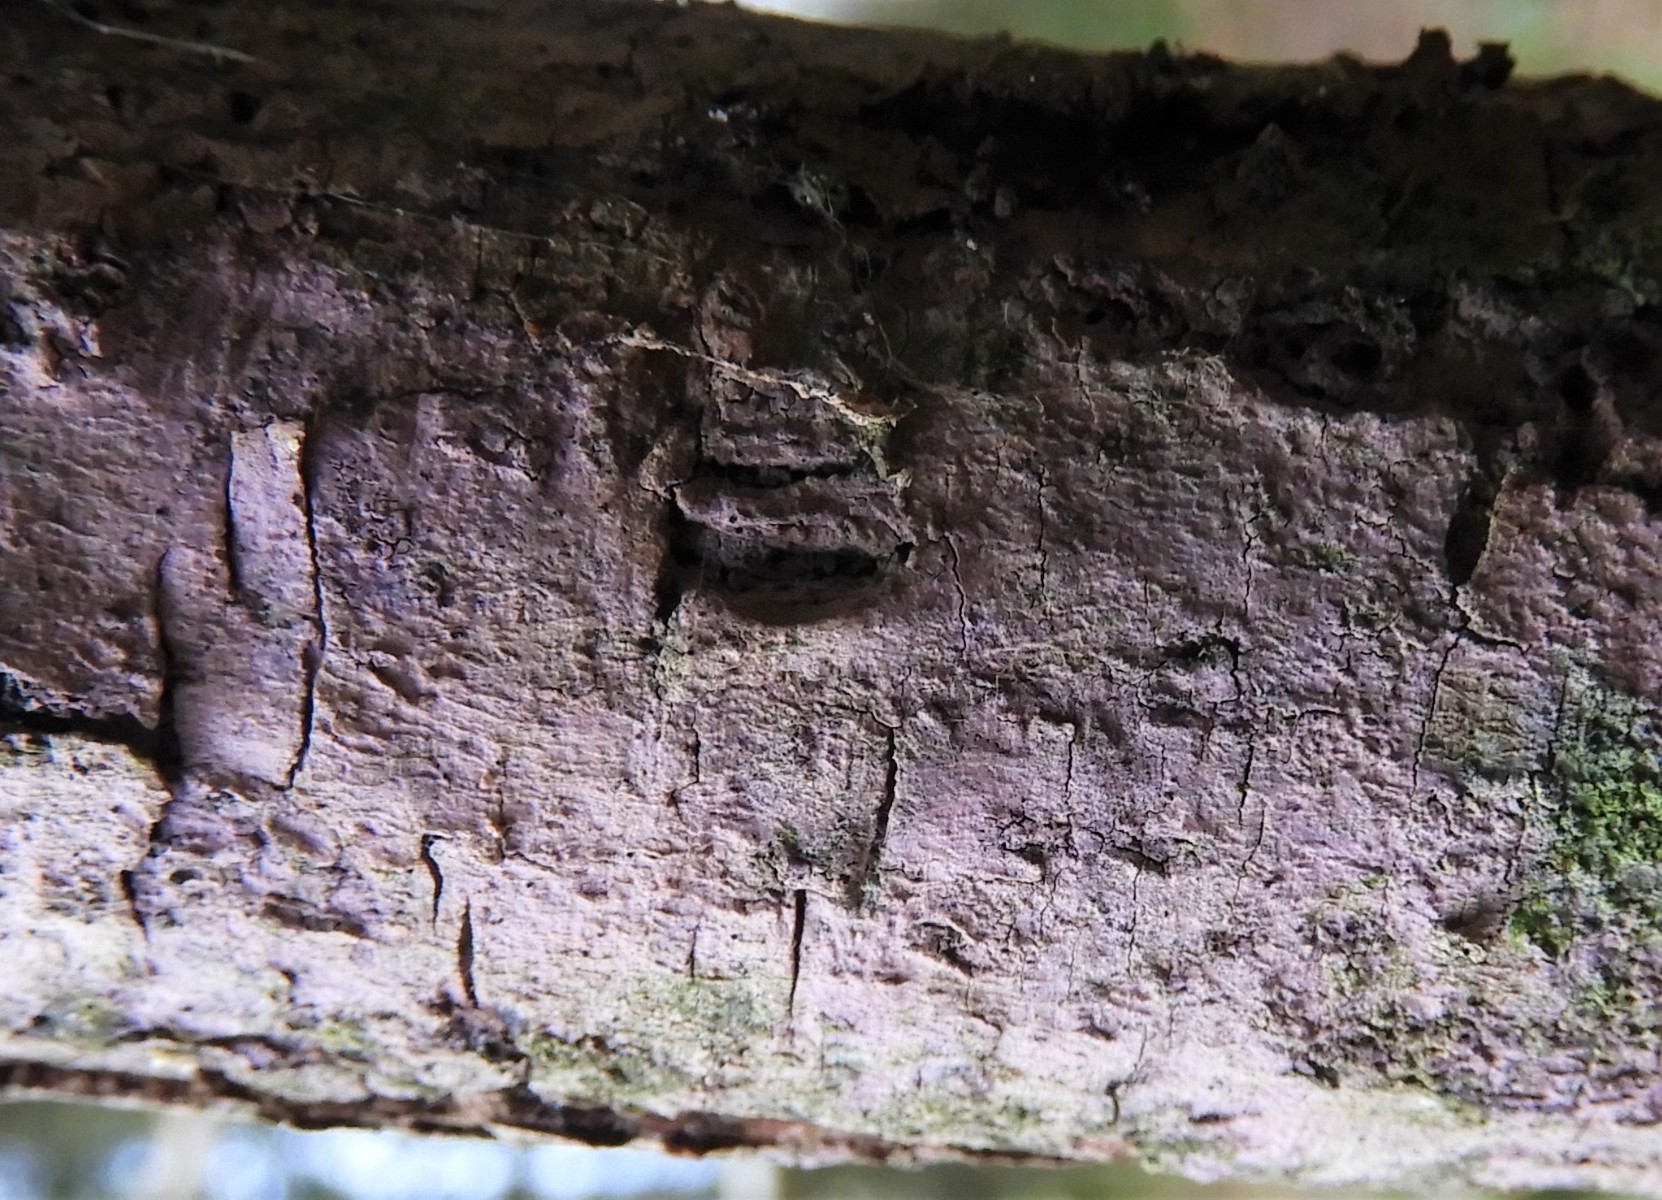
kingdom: Fungi
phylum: Basidiomycota
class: Agaricomycetes
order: Cantharellales
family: Tulasnellaceae
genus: Tulasnella
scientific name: Tulasnella violea
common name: violet ballonhinde
